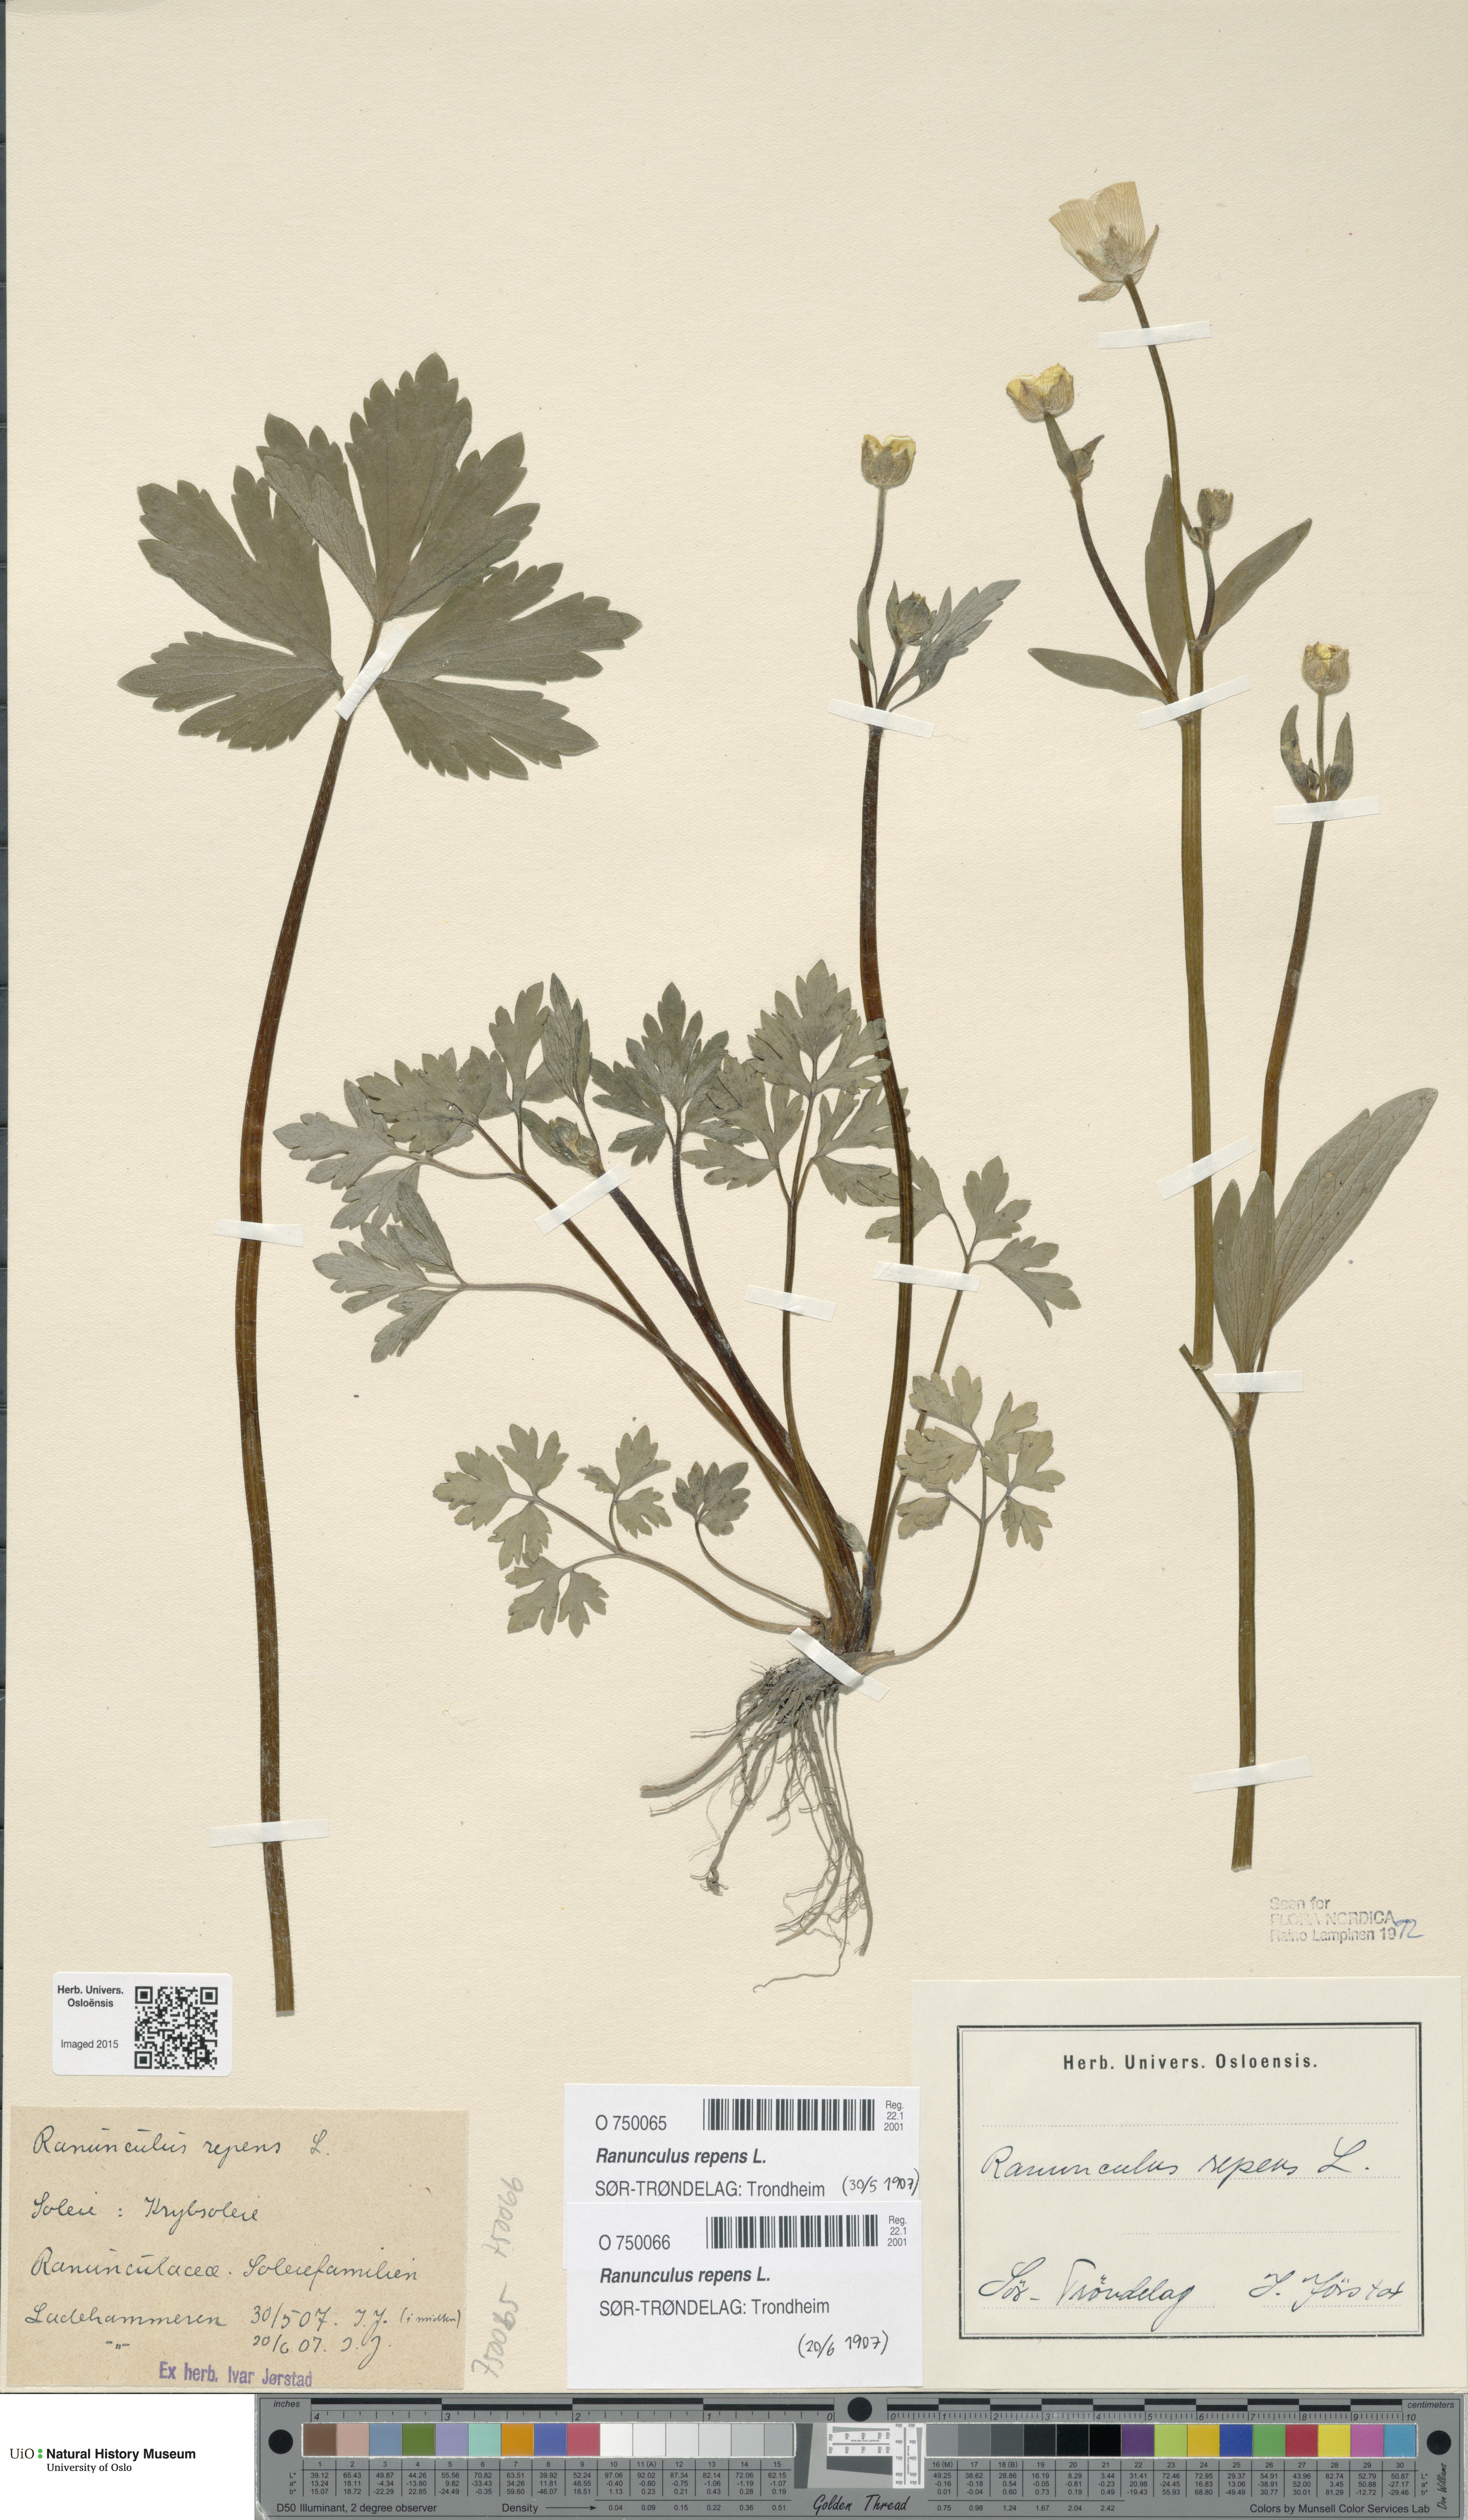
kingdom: Plantae
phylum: Tracheophyta
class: Magnoliopsida
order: Ranunculales
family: Ranunculaceae
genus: Ranunculus
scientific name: Ranunculus repens
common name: Creeping buttercup
